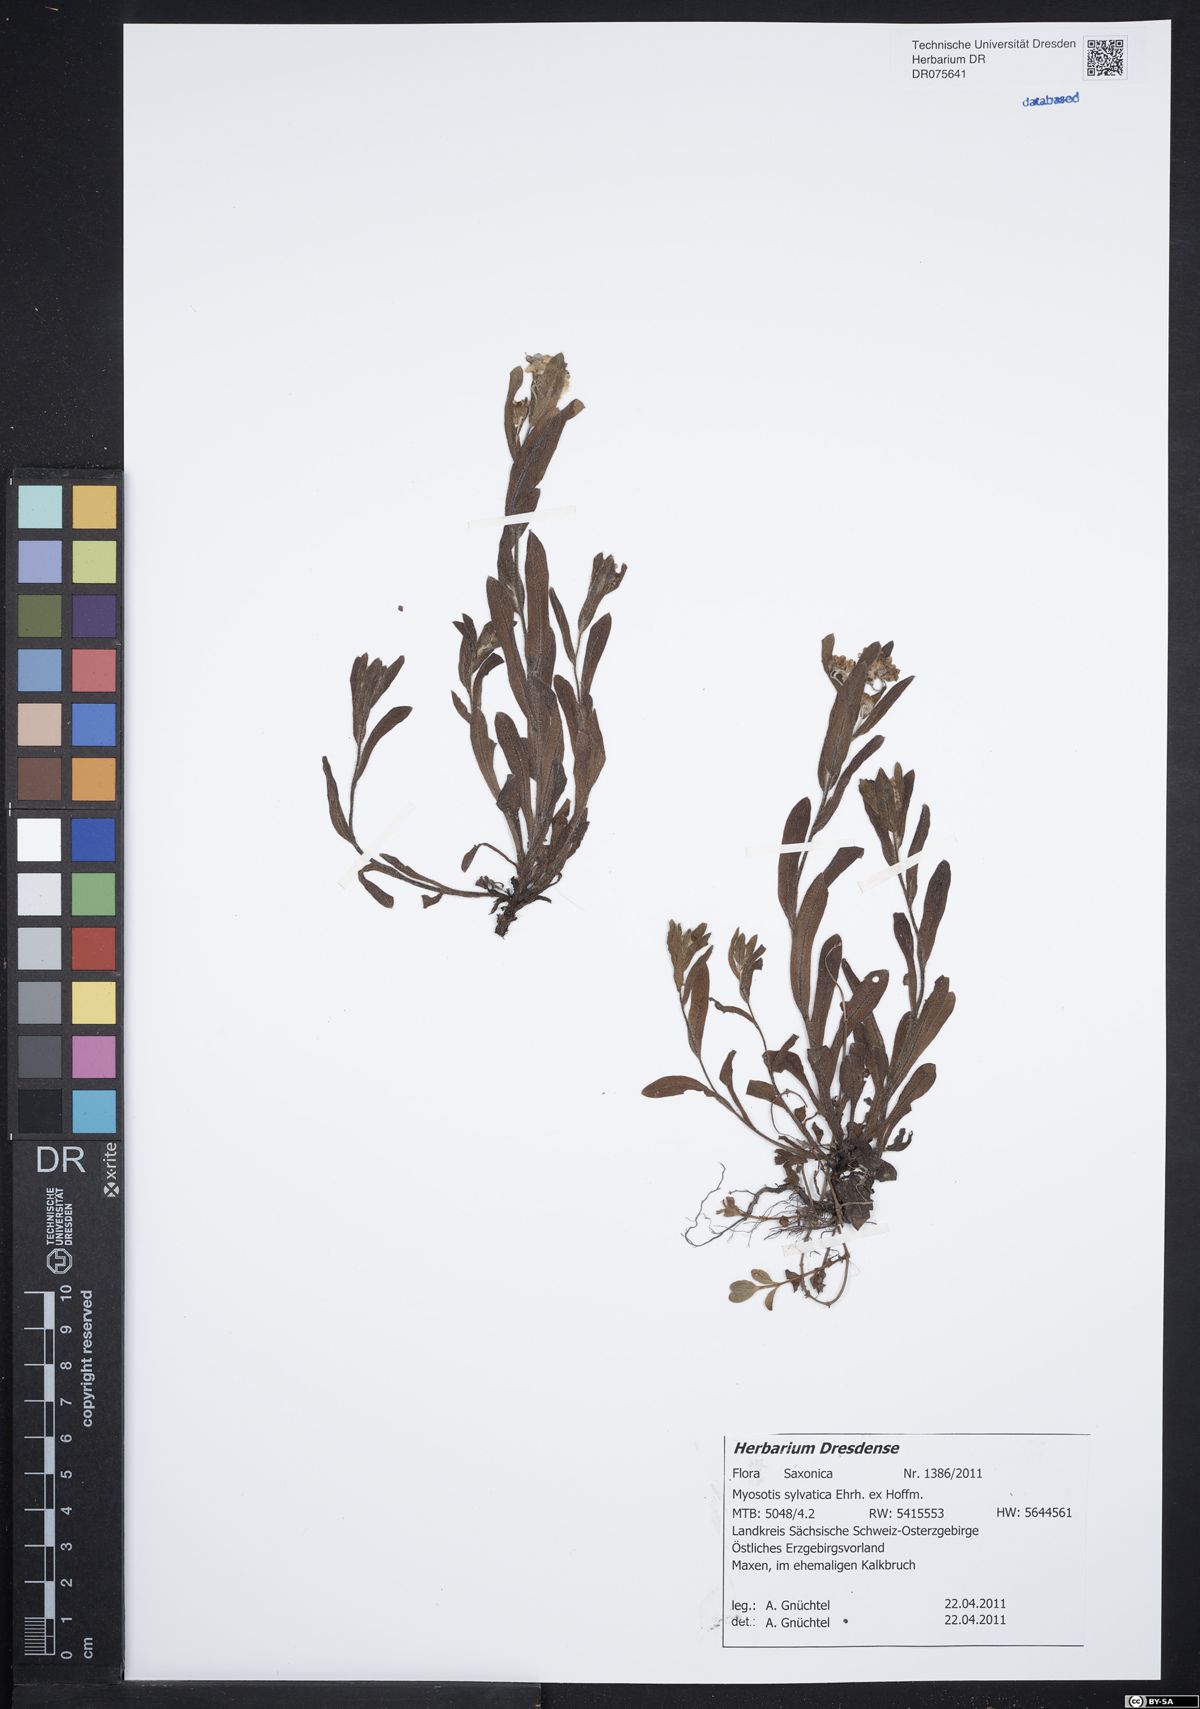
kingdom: Plantae
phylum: Tracheophyta
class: Magnoliopsida
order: Boraginales
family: Boraginaceae
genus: Myosotis
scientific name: Myosotis sylvatica
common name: Wood forget-me-not
